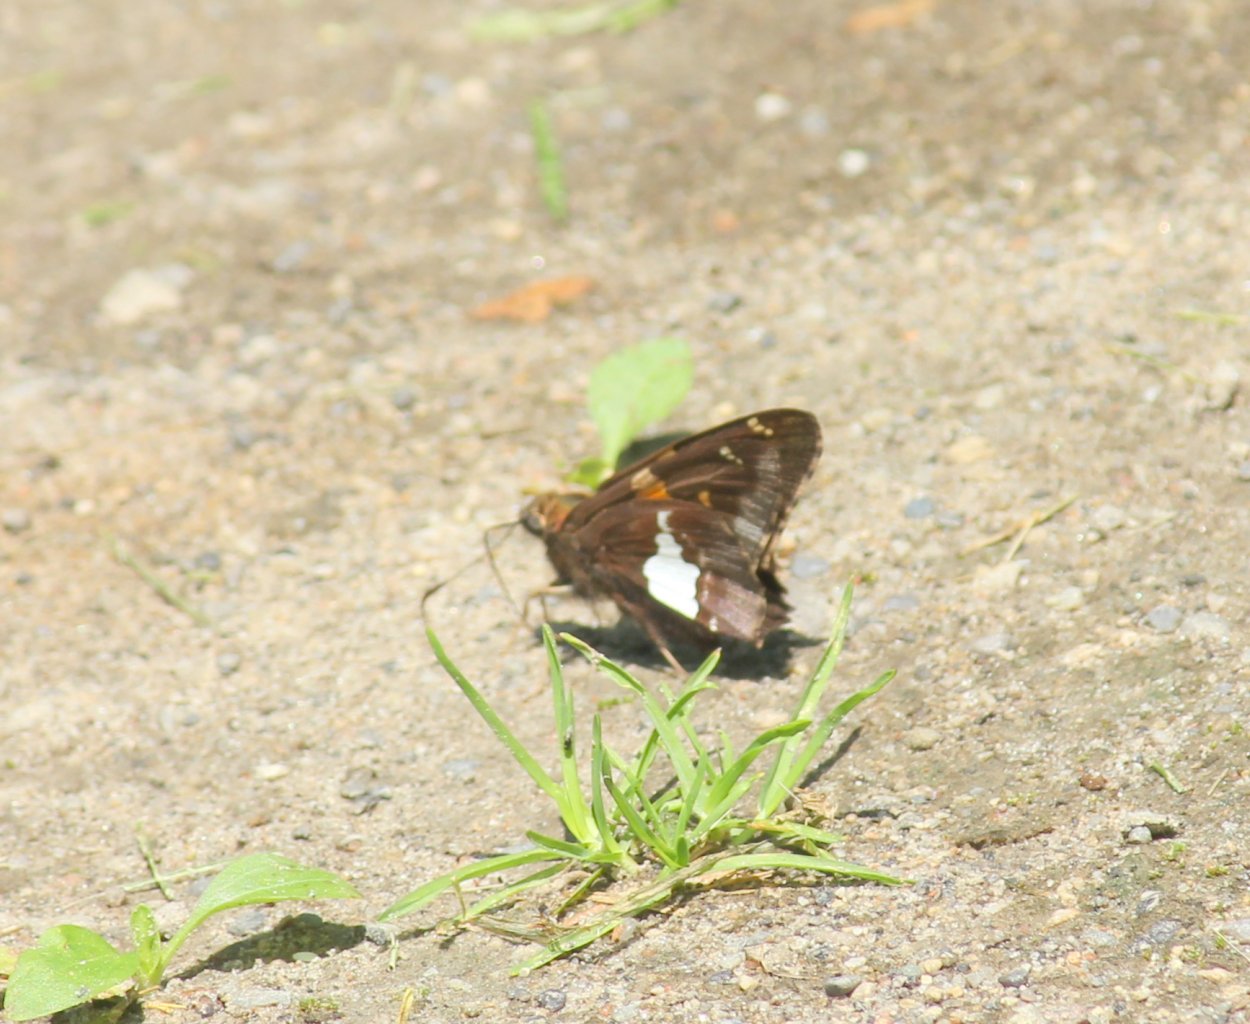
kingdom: Animalia
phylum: Arthropoda
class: Insecta
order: Lepidoptera
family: Hesperiidae
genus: Epargyreus
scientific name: Epargyreus clarus
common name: Silver-spotted Skipper
